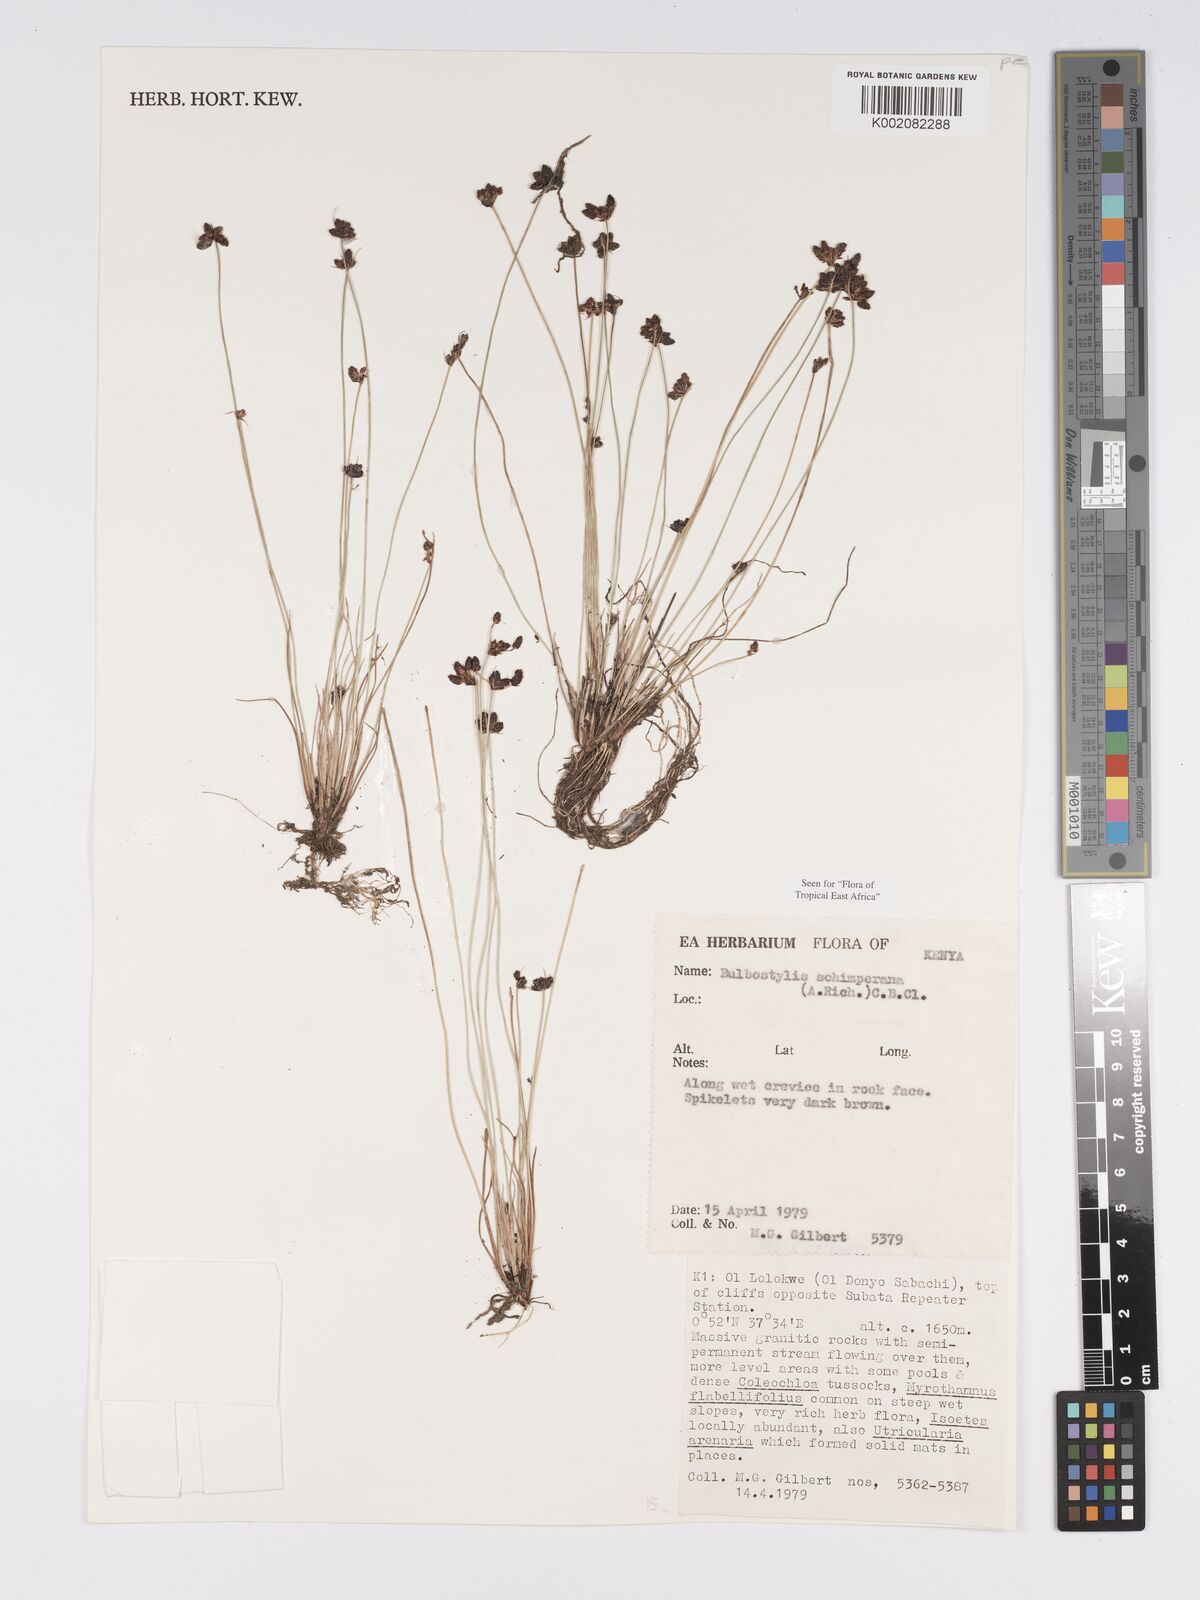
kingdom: Plantae
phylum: Tracheophyta
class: Liliopsida
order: Poales
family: Cyperaceae
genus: Bulbostylis
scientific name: Bulbostylis schimperiana
